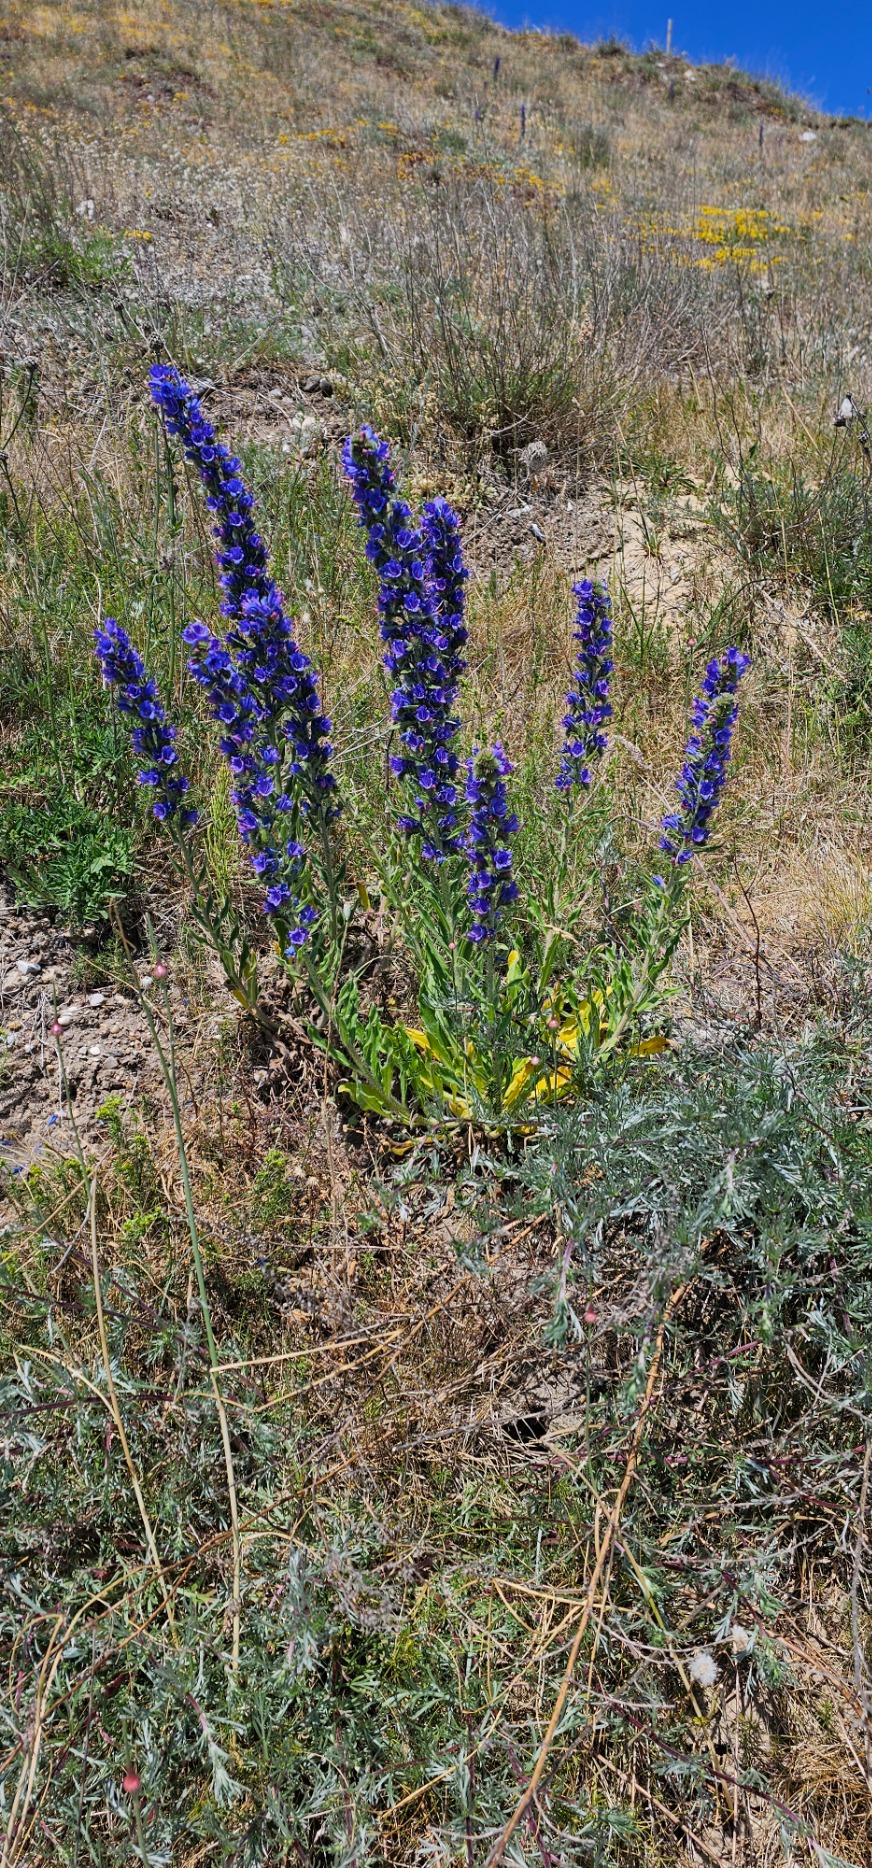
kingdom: Plantae
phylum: Tracheophyta
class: Magnoliopsida
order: Boraginales
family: Boraginaceae
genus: Echium
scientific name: Echium vulgare
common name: Slangehoved
